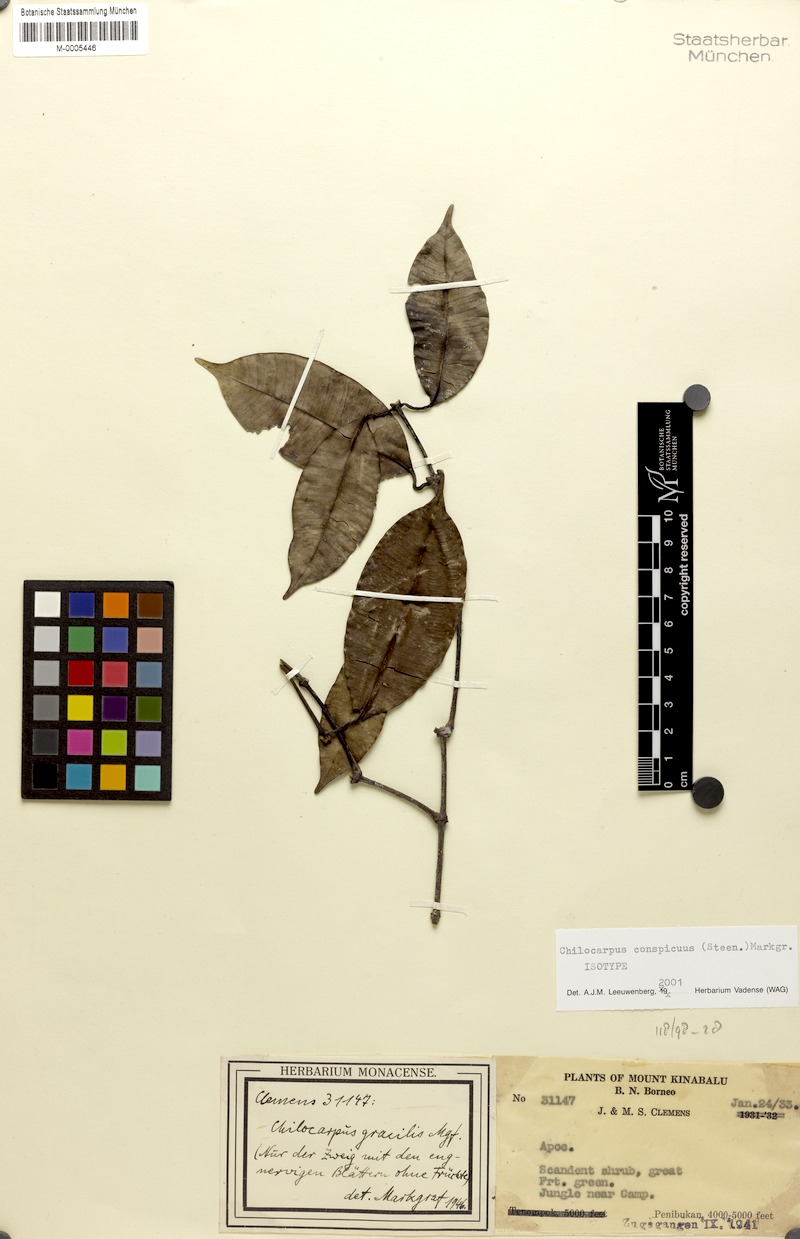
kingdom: Plantae
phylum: Tracheophyta
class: Magnoliopsida
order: Gentianales
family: Apocynaceae
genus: Chilocarpus
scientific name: Chilocarpus conspicuus
